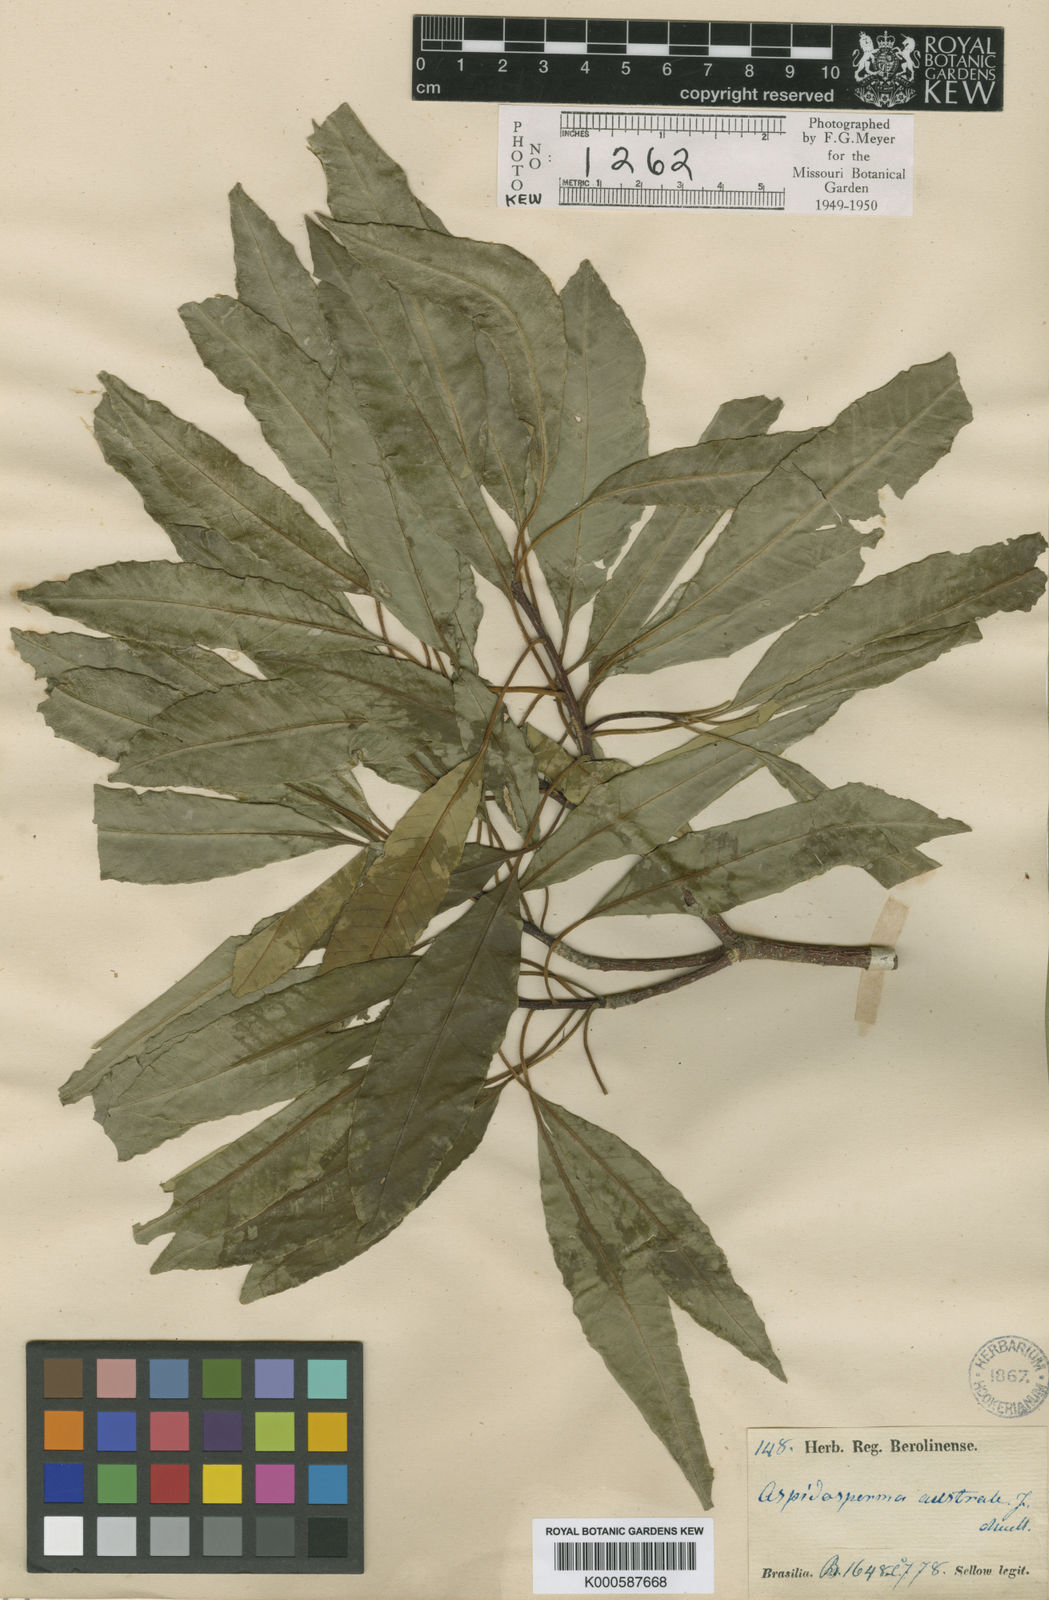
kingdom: Plantae
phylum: Tracheophyta
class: Magnoliopsida
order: Gentianales
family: Apocynaceae
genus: Aspidosperma
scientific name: Aspidosperma
